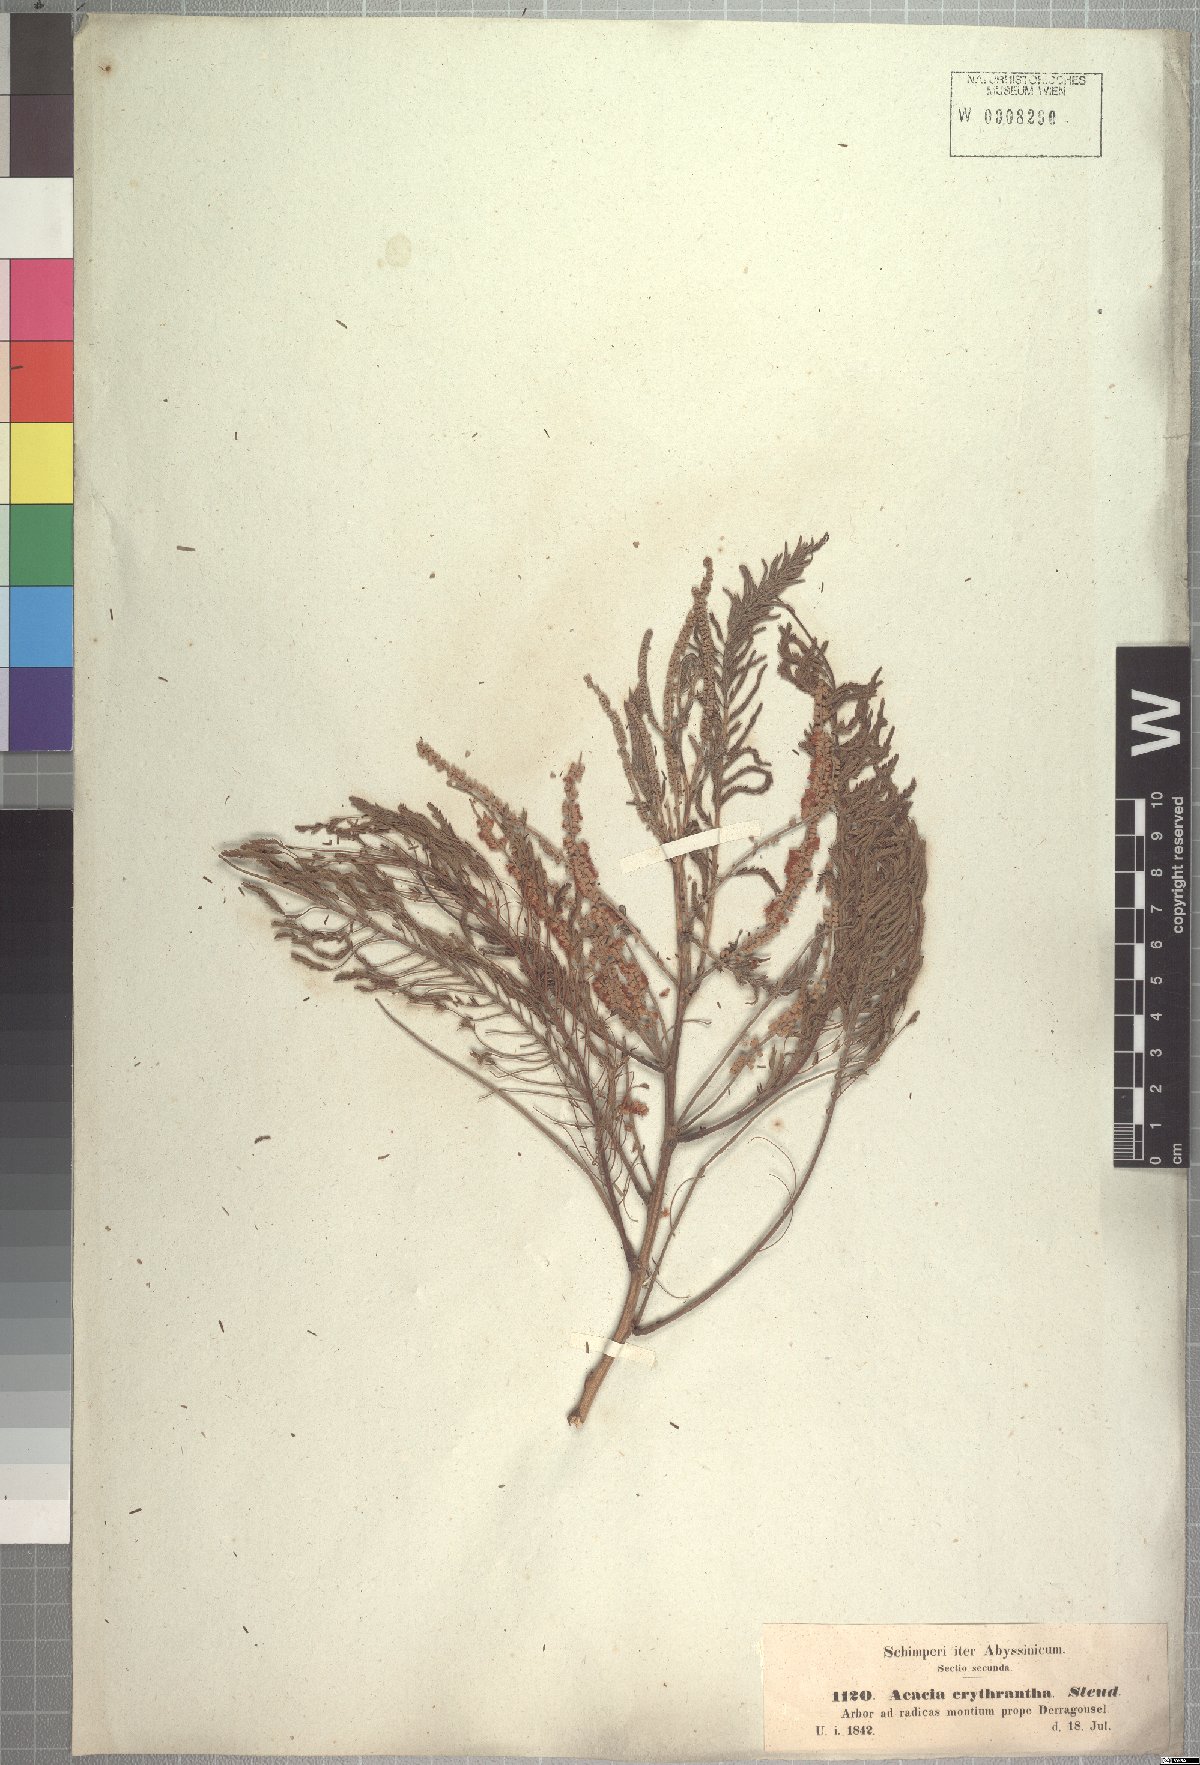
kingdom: Plantae
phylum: Tracheophyta
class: Magnoliopsida
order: Fabales
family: Fabaceae
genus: Senegalia
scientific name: Senegalia polyacantha
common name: Whitethorn
